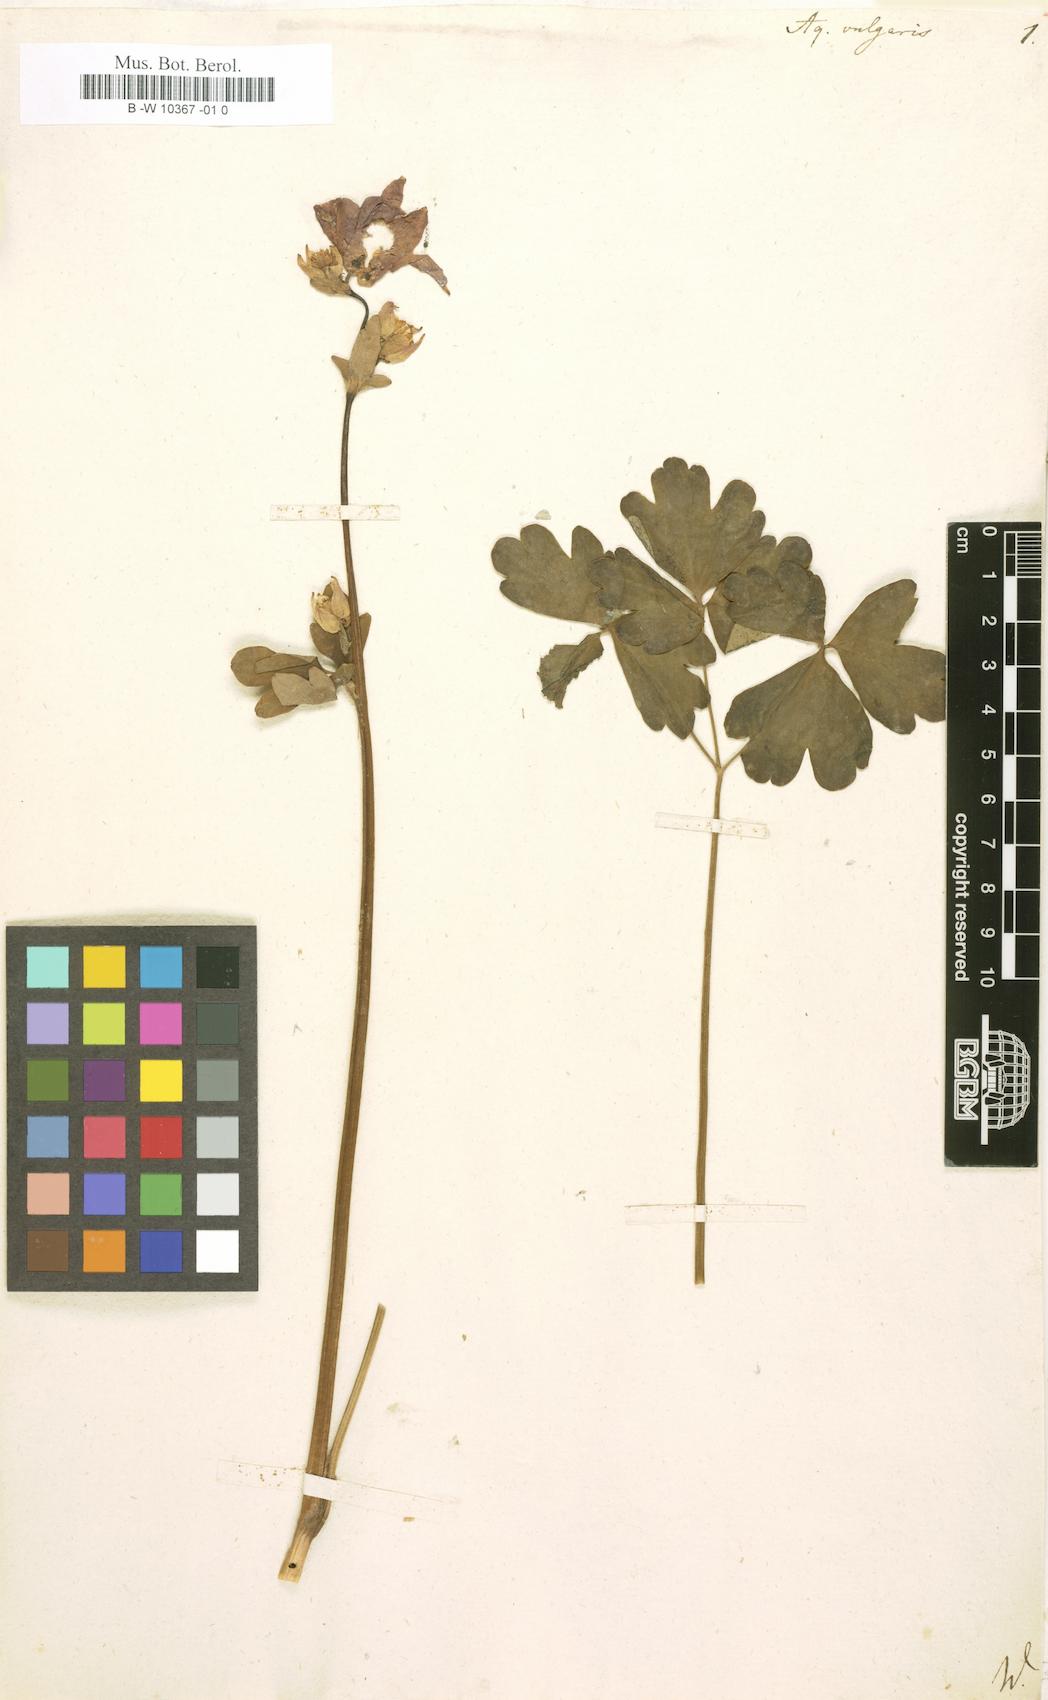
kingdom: Plantae
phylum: Tracheophyta
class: Magnoliopsida
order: Ranunculales
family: Ranunculaceae
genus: Aquilegia
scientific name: Aquilegia vulgaris
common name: Columbine
